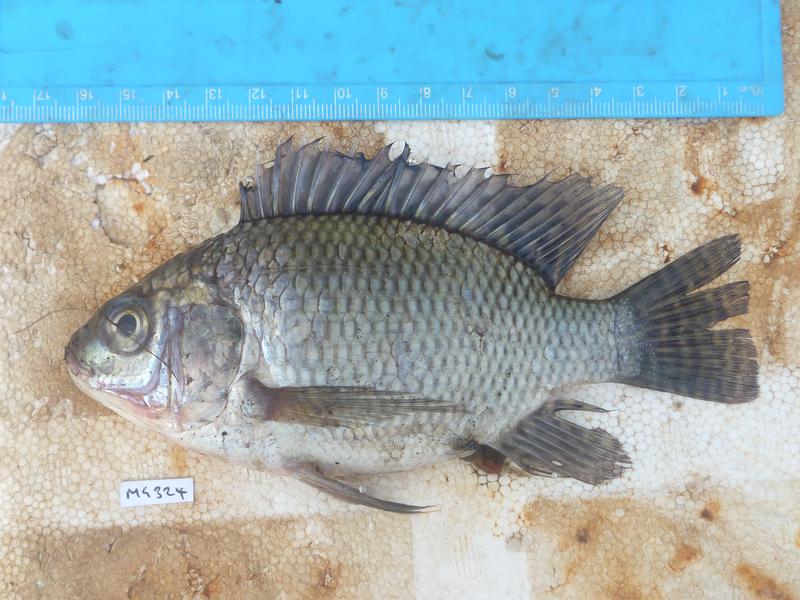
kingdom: Animalia
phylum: Chordata
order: Perciformes
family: Cichlidae
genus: Oreochromis
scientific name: Oreochromis niloticus
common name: Nile tilapia
